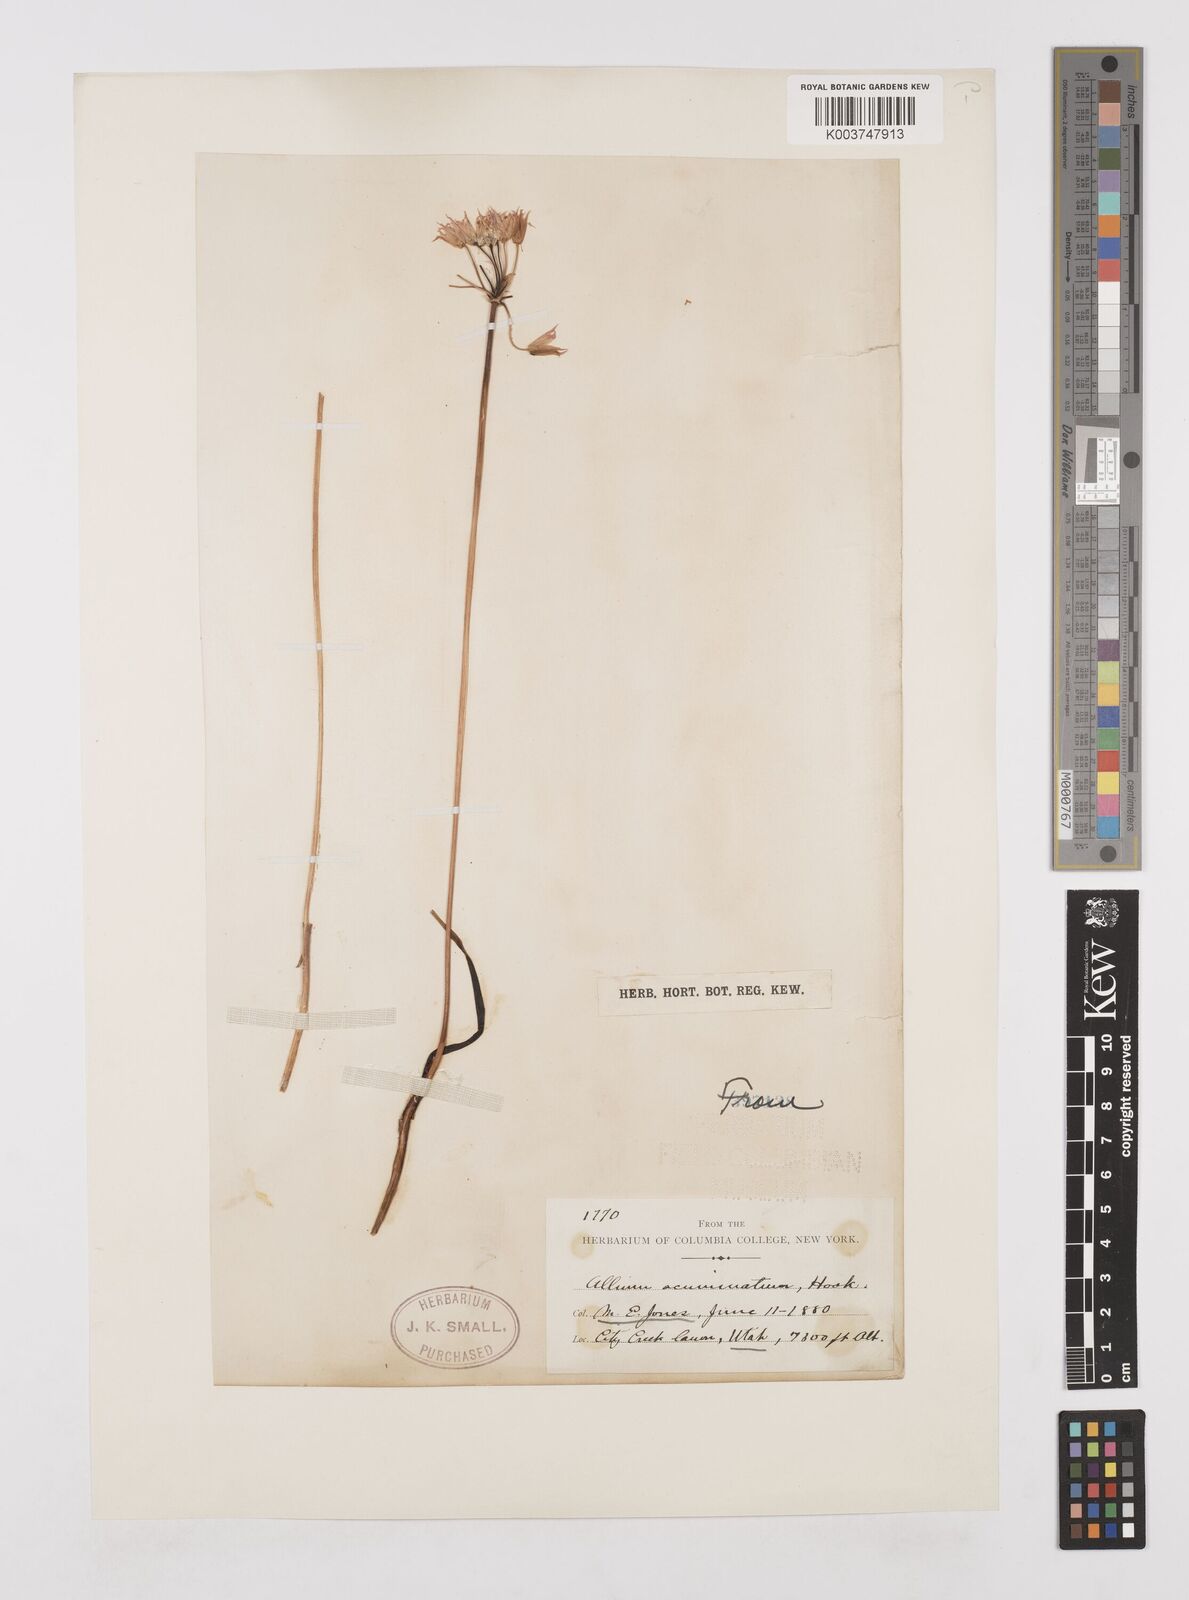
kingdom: Plantae
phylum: Tracheophyta
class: Liliopsida
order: Asparagales
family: Amaryllidaceae
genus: Allium
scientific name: Allium acuminatum
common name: Hooker's onion
